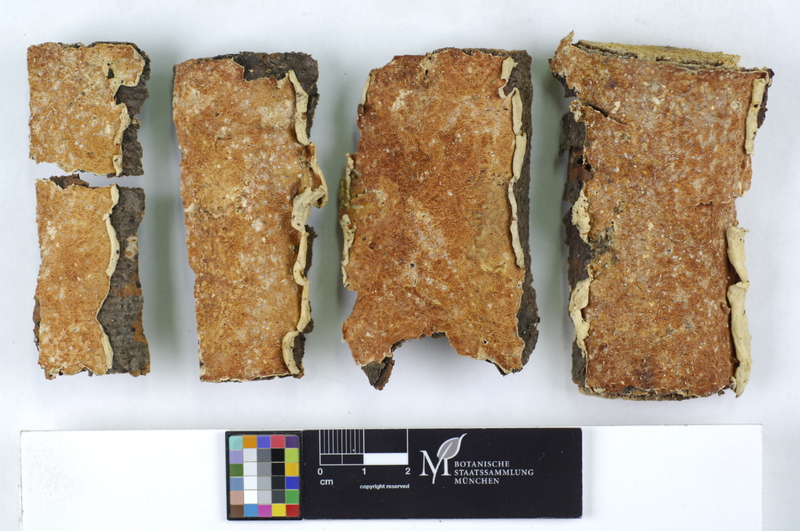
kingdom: Plantae
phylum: Tracheophyta
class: Magnoliopsida
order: Fagales
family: Fagaceae
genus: Fagus
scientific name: Fagus sylvatica
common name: Beech
